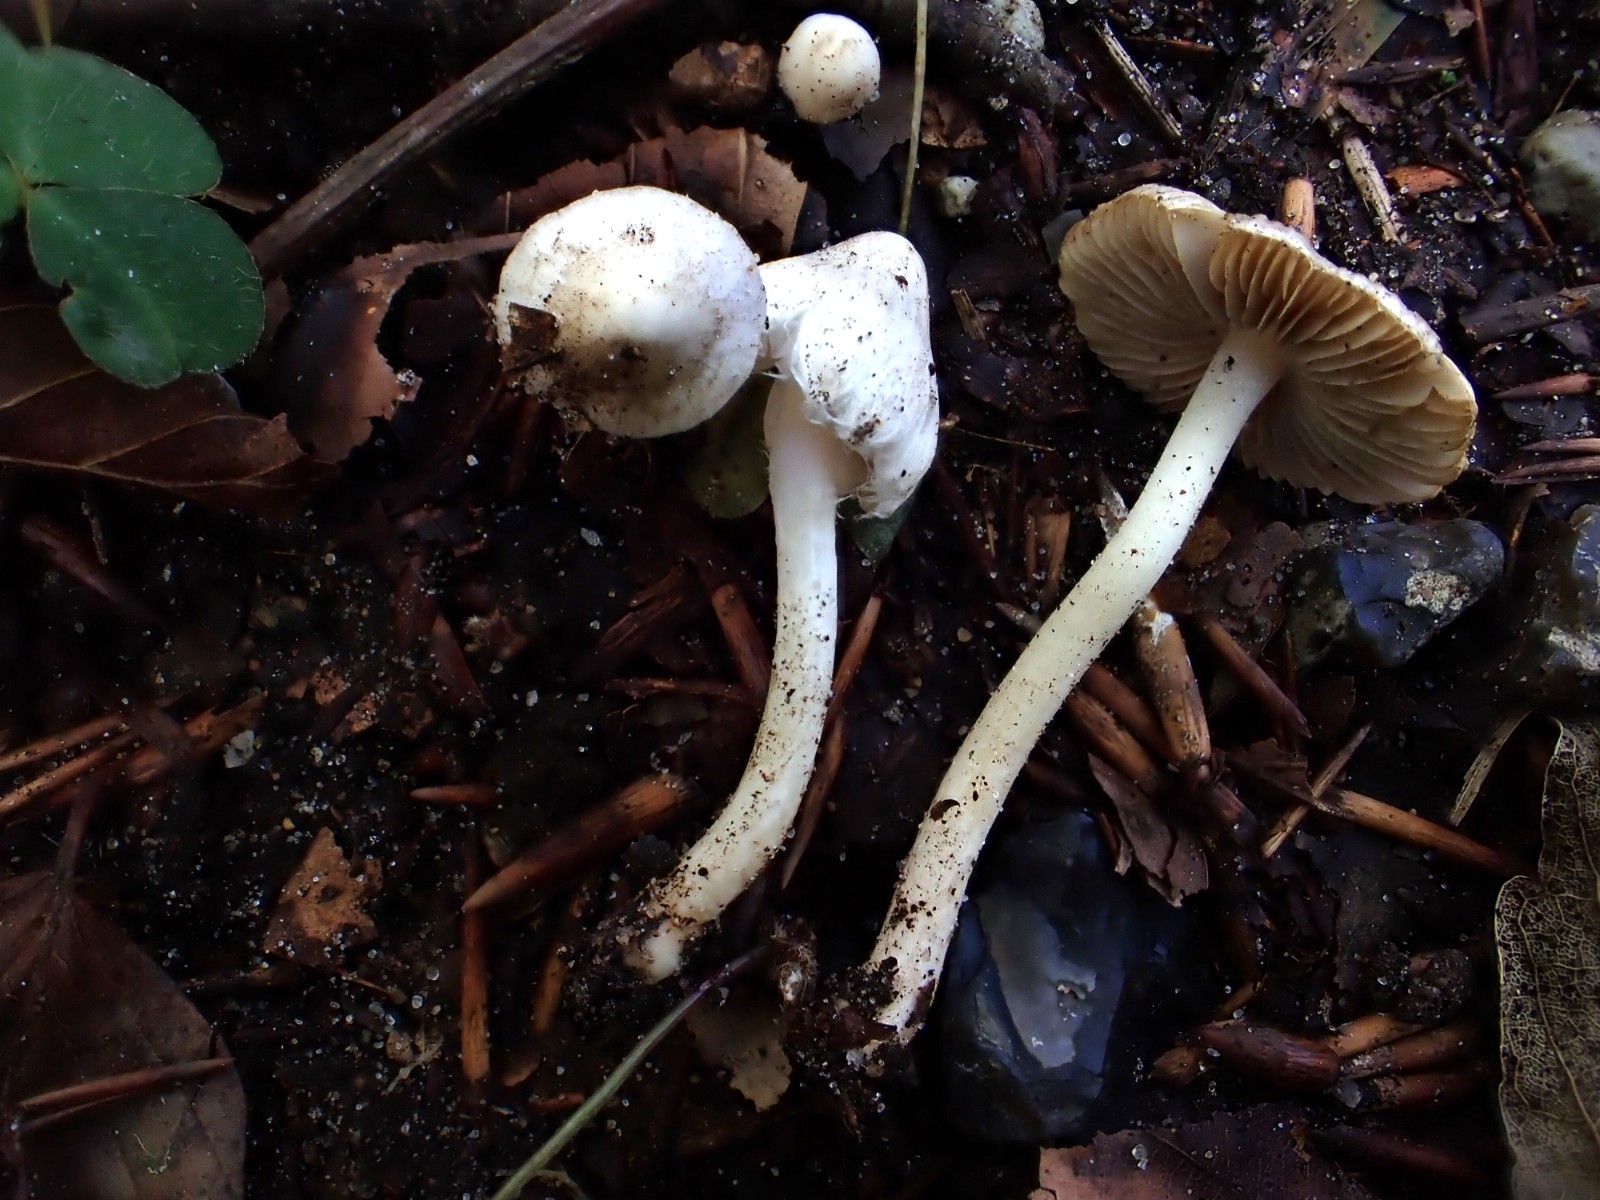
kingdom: Fungi
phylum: Basidiomycota
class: Agaricomycetes
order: Agaricales
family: Inocybaceae
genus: Inocybe
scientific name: Inocybe
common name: almindelig trævlhat
